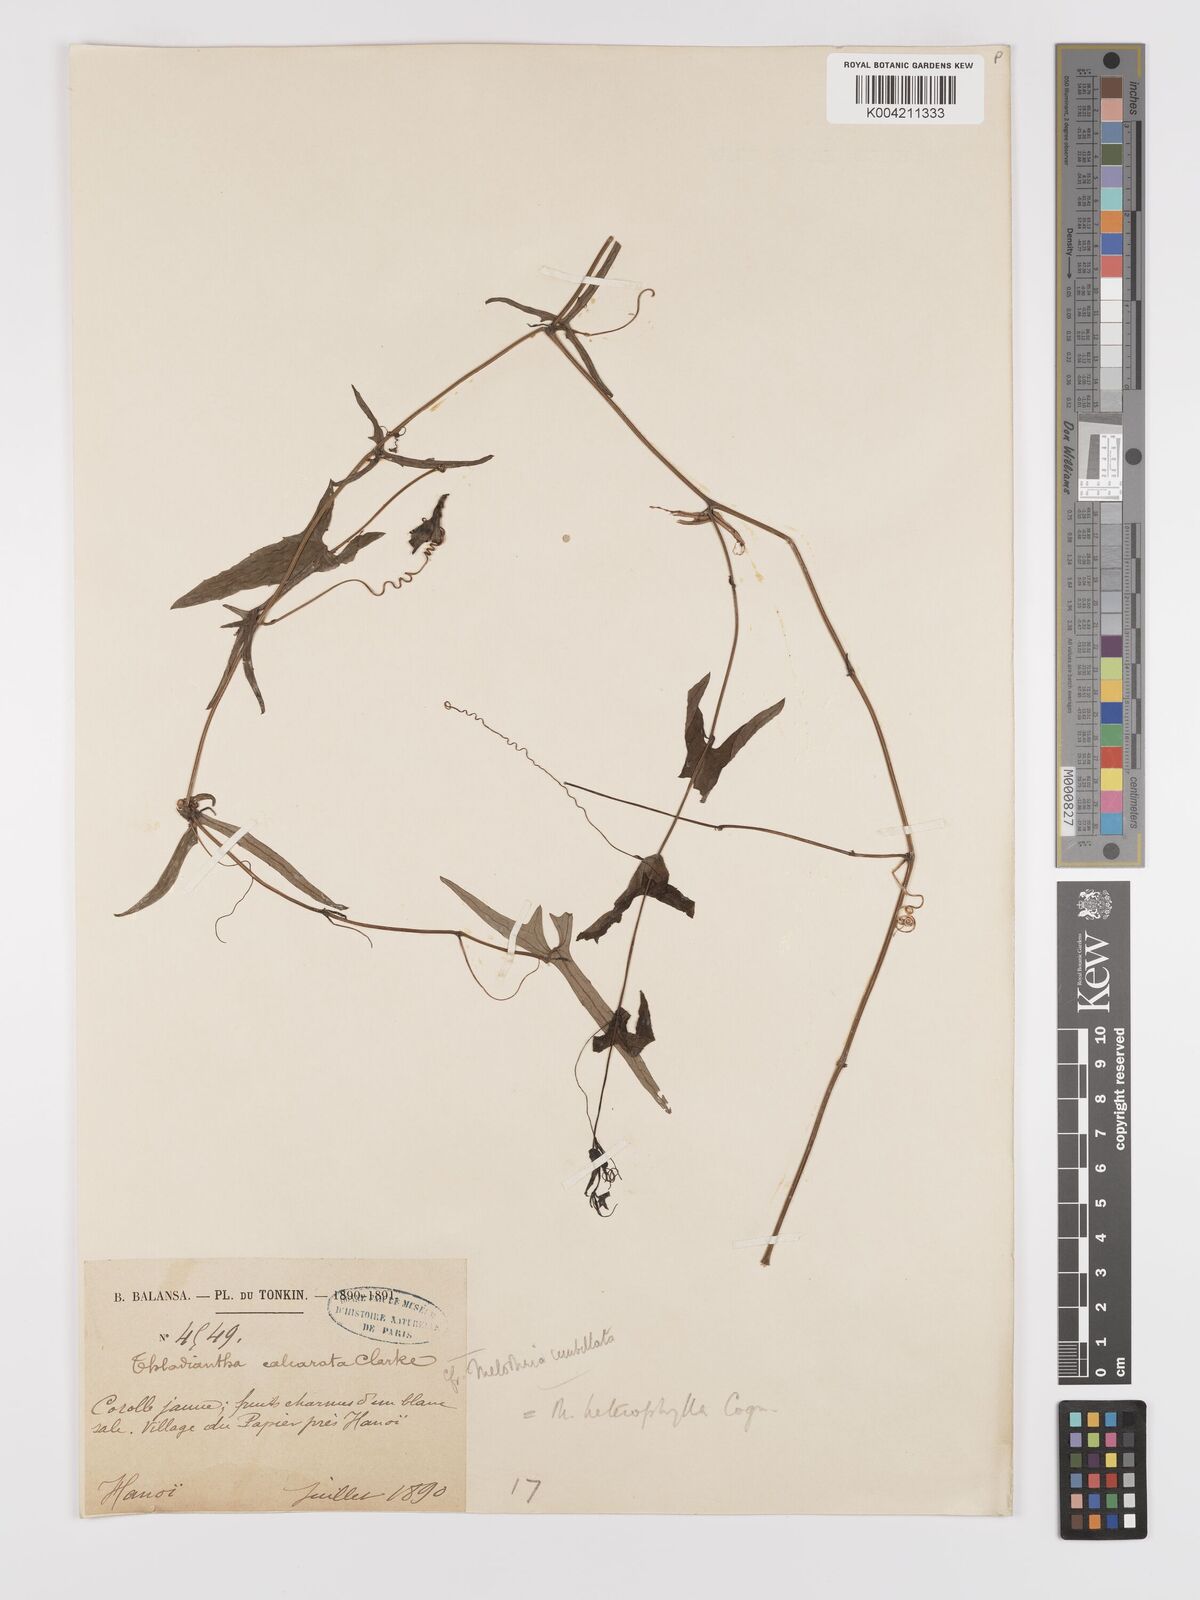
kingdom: Plantae
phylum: Tracheophyta
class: Magnoliopsida
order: Cucurbitales
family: Cucurbitaceae
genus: Solena
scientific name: Solena amplexicaulis
